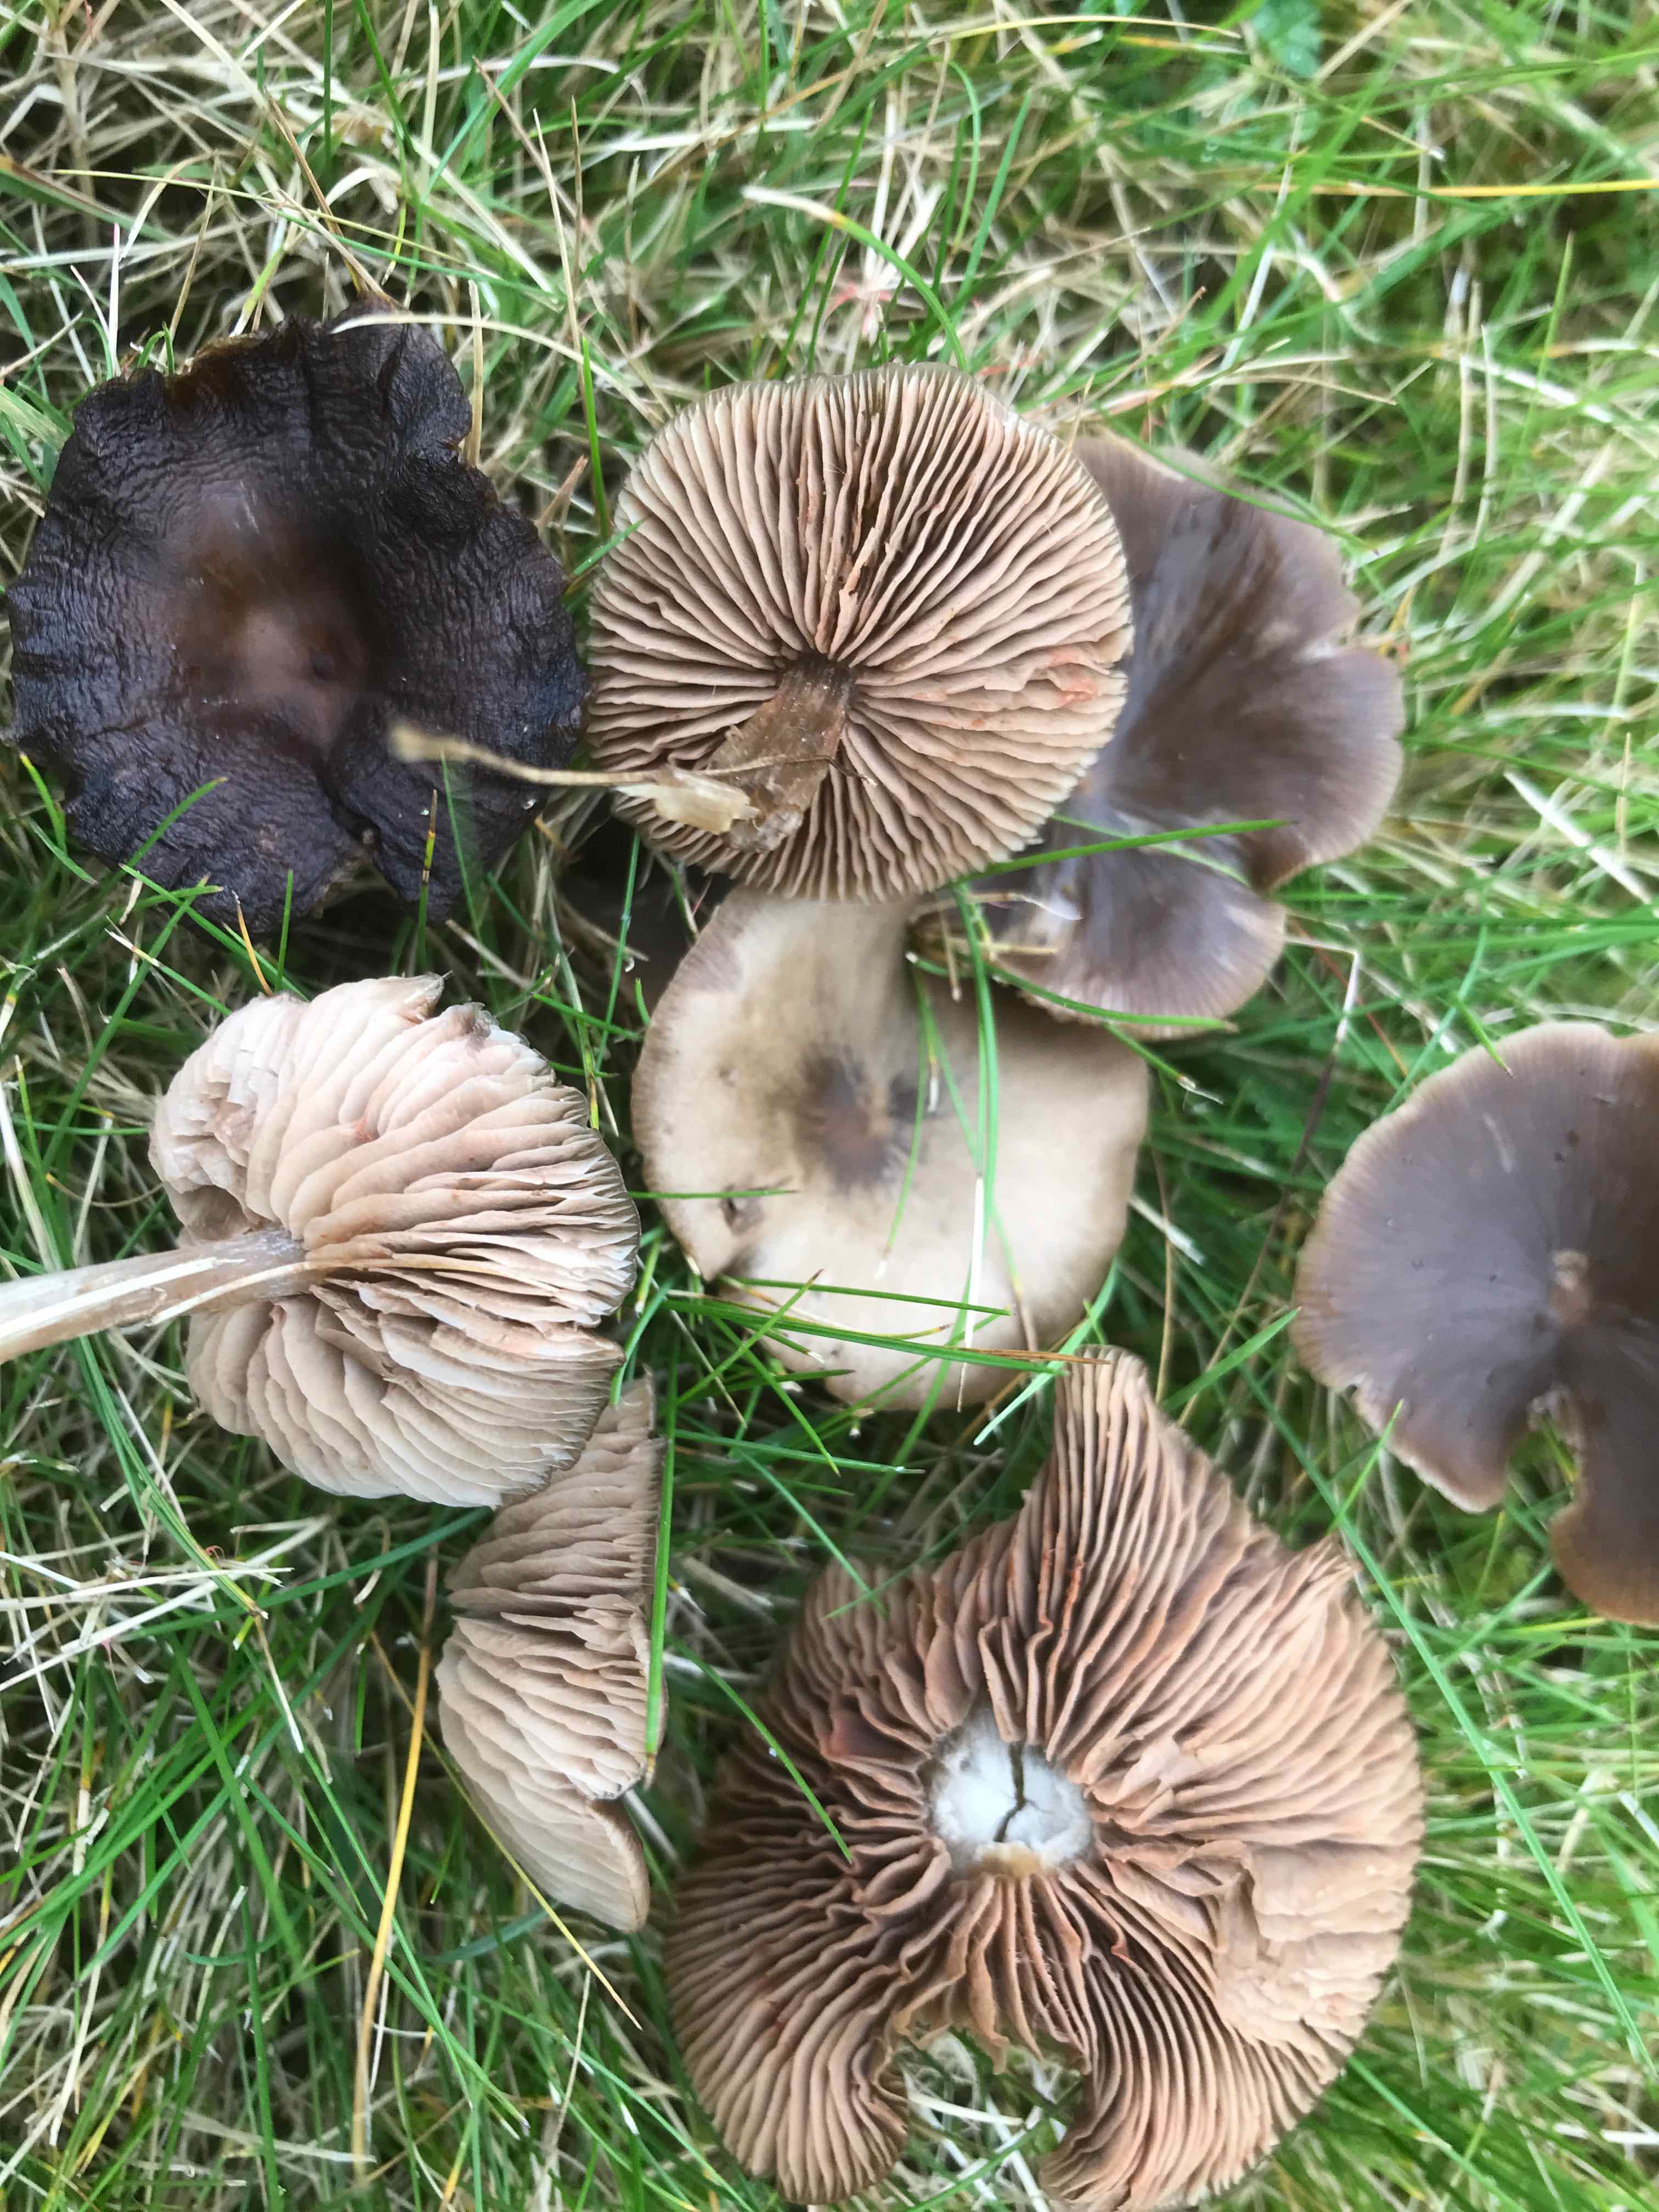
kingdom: Fungi
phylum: Basidiomycota
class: Agaricomycetes
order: Agaricales
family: Entolomataceae
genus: Entoloma
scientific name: Entoloma sericeum
